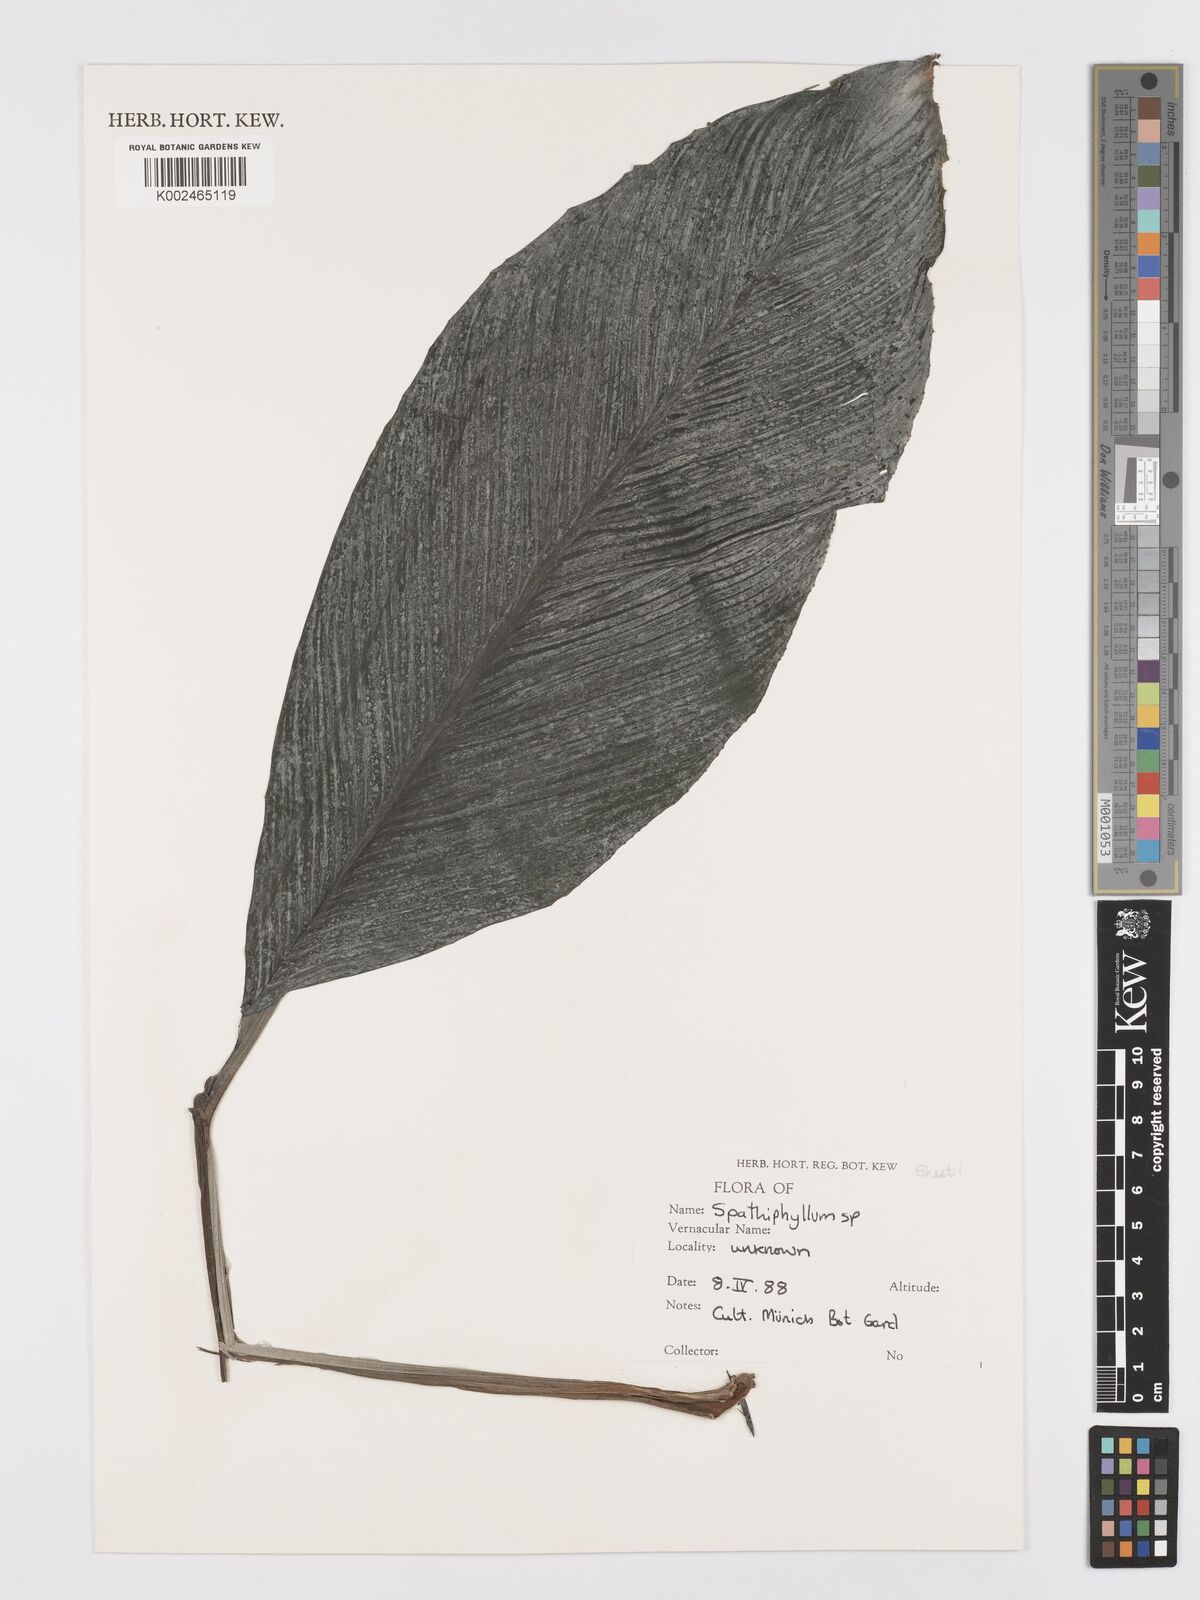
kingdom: Plantae
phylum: Tracheophyta
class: Liliopsida
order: Alismatales
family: Araceae
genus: Spathiphyllum
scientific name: Spathiphyllum
